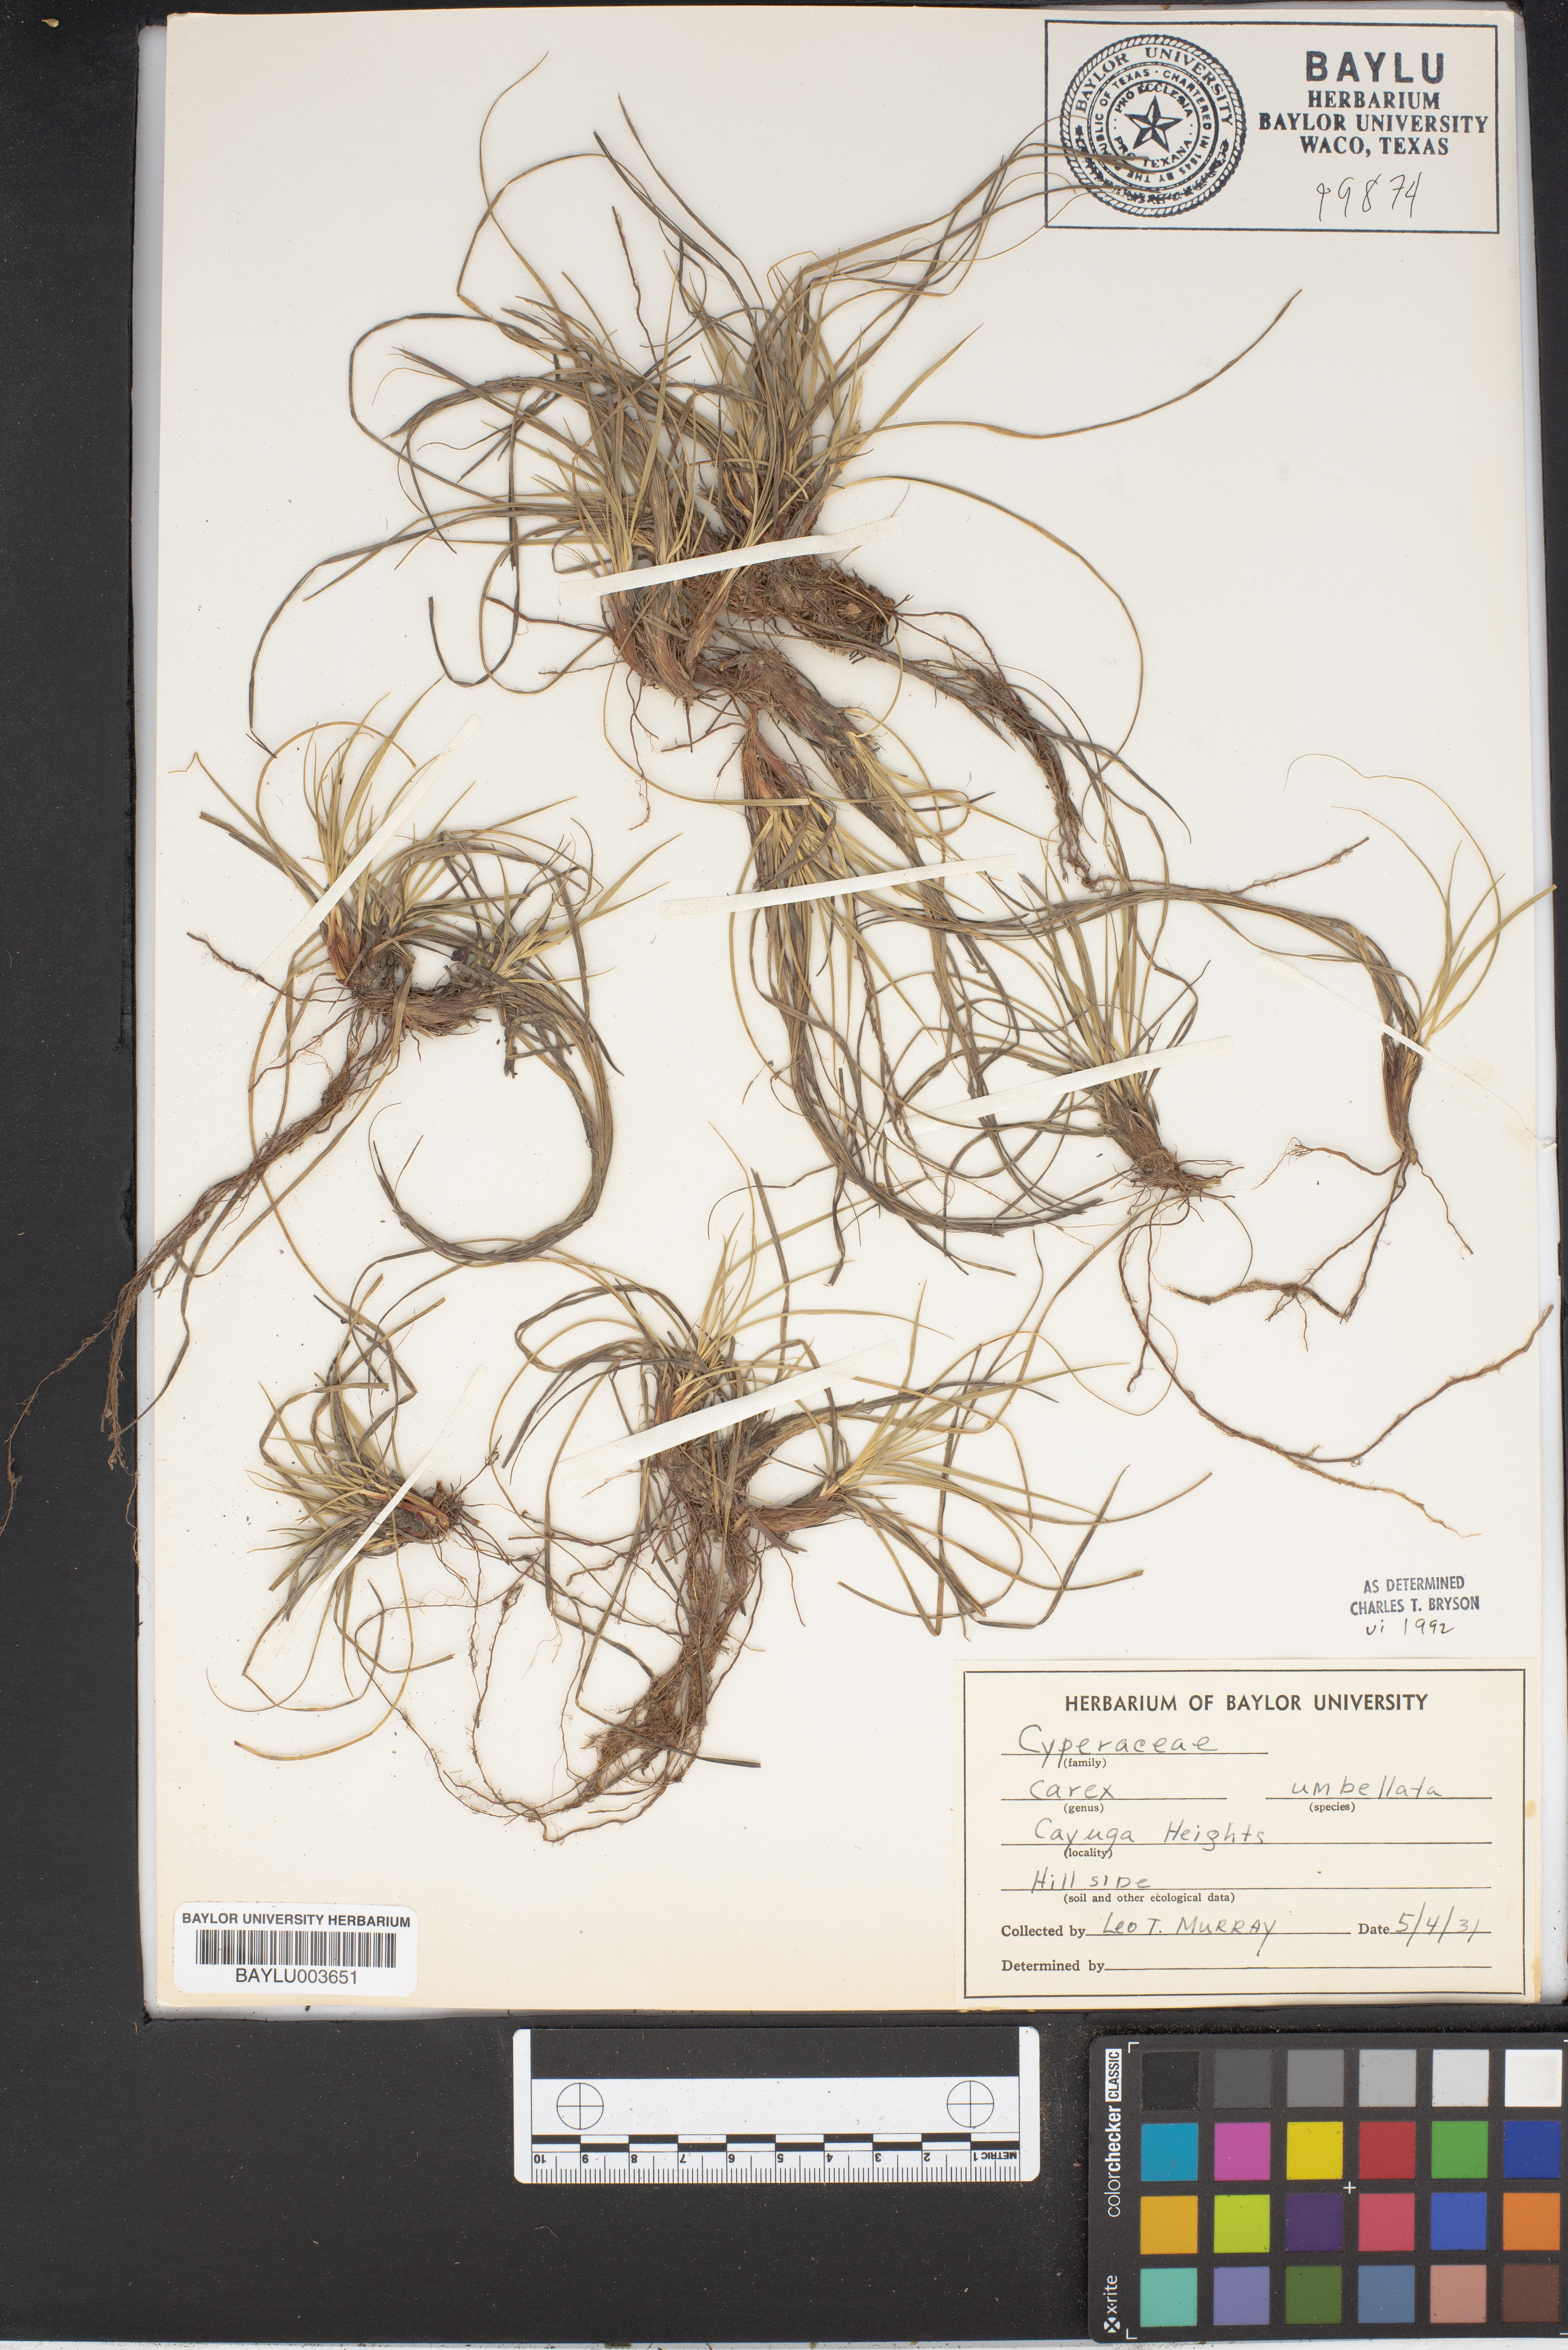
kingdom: Plantae
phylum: Tracheophyta
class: Liliopsida
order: Poales
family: Cyperaceae
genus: Carex
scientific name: Carex umbellata
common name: Early oak sedge
